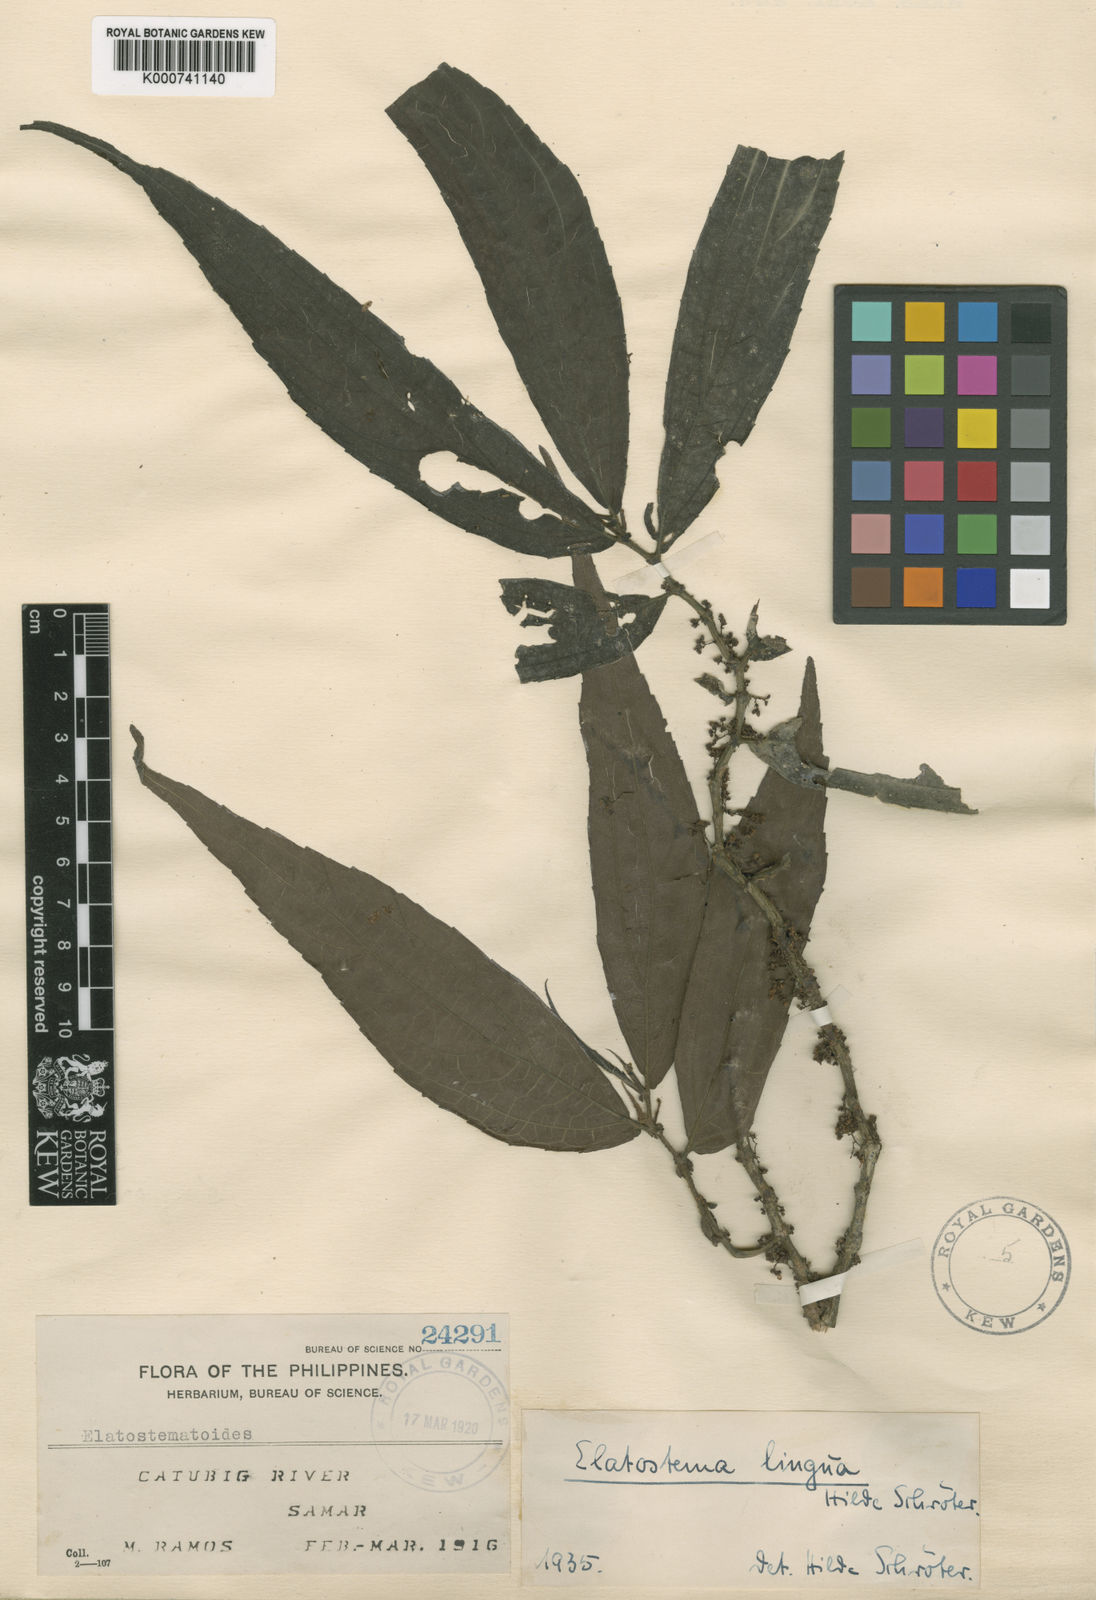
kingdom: Plantae
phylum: Tracheophyta
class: Magnoliopsida
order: Rosales
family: Urticaceae
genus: Elatostematoides
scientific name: Elatostematoides lingua
